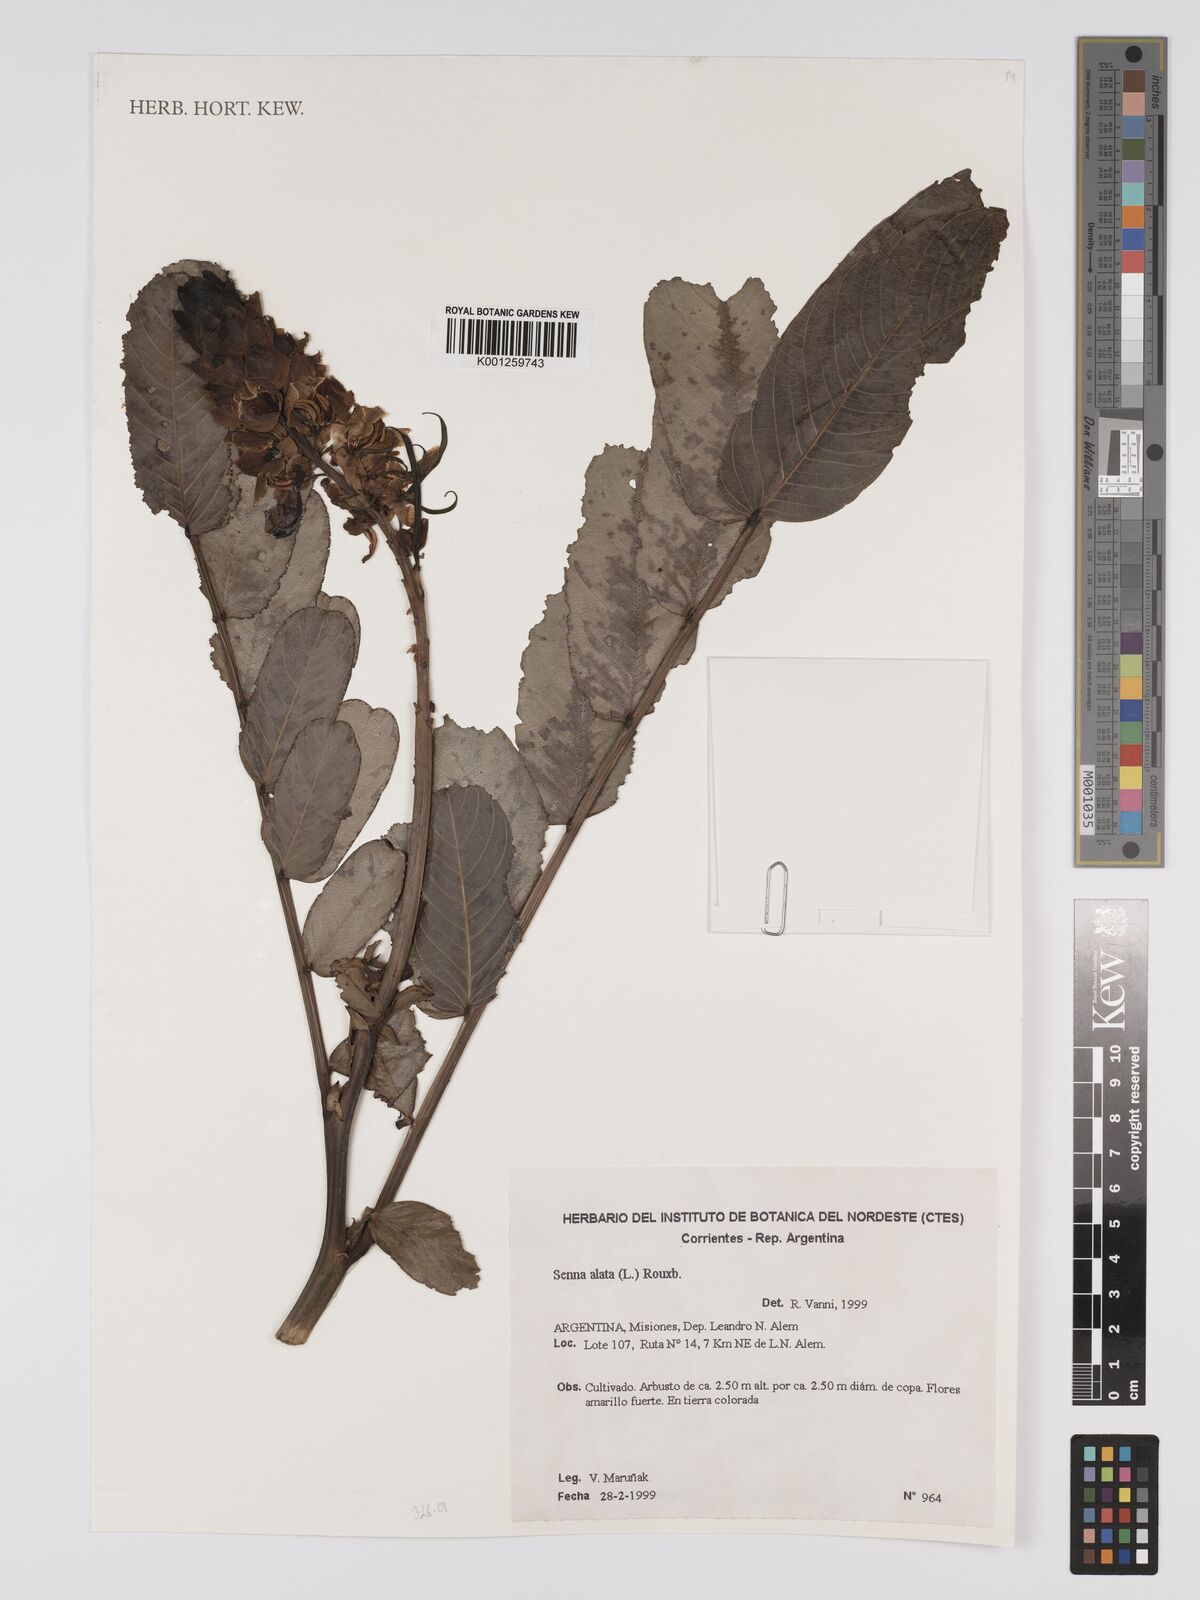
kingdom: Plantae
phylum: Tracheophyta
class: Magnoliopsida
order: Fabales
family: Fabaceae
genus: Senna
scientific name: Senna alata
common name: Emperor's candlesticks
